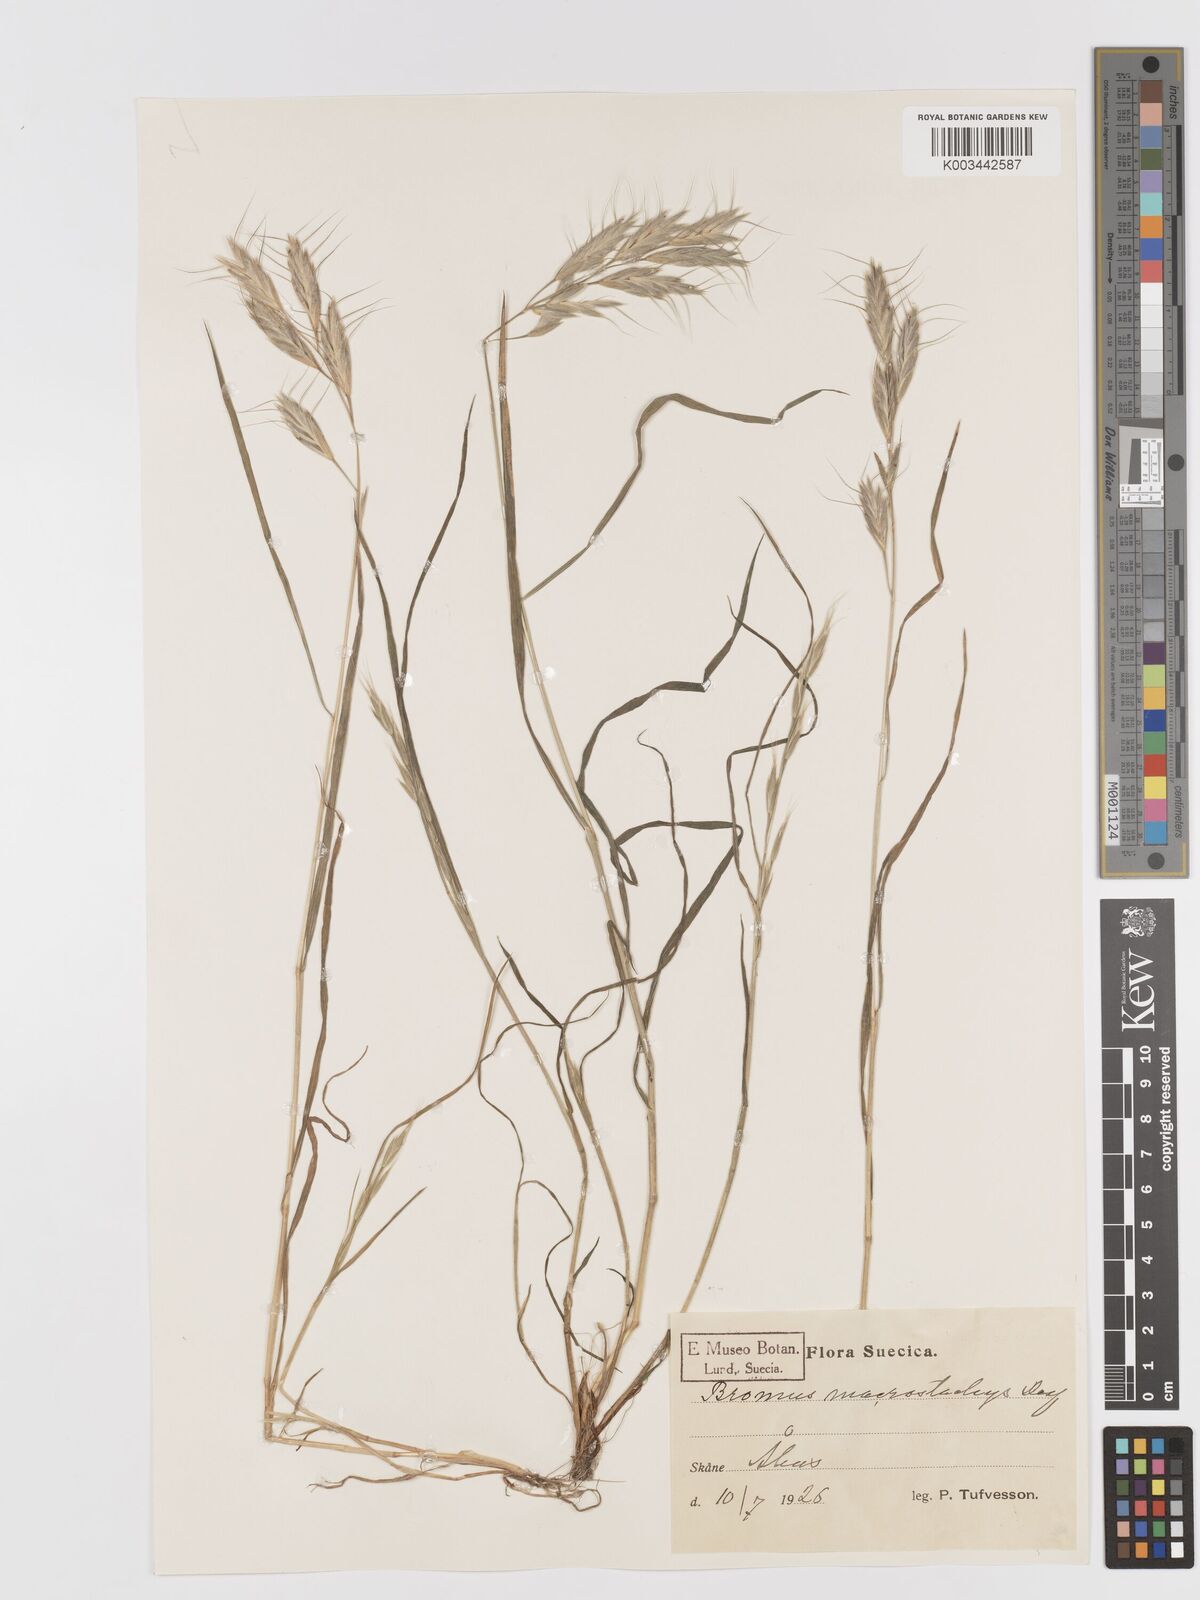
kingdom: Plantae
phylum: Tracheophyta
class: Liliopsida
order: Poales
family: Poaceae
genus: Bromus
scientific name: Bromus lanceolatus
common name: Mediterranean brome
